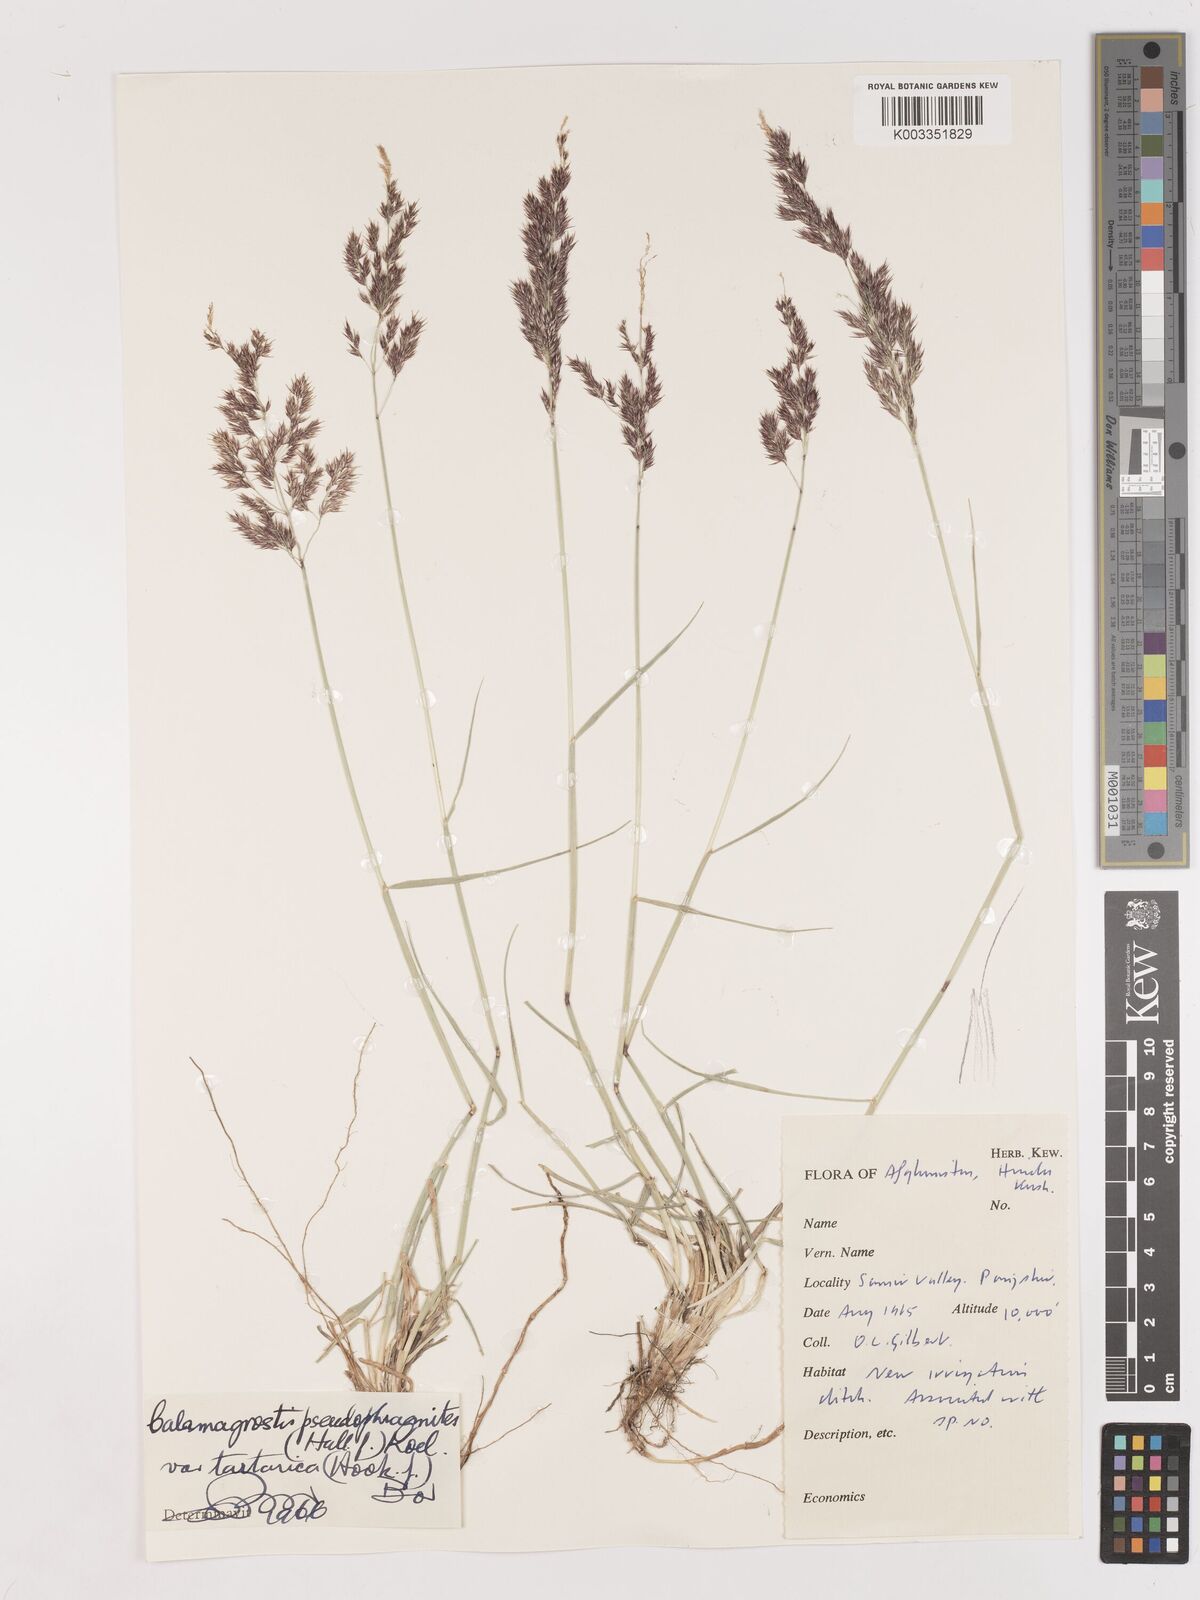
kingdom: Plantae
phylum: Tracheophyta
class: Liliopsida
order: Poales
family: Poaceae
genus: Calamagrostis
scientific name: Calamagrostis pseudophragmites
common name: Coastal small-reed
